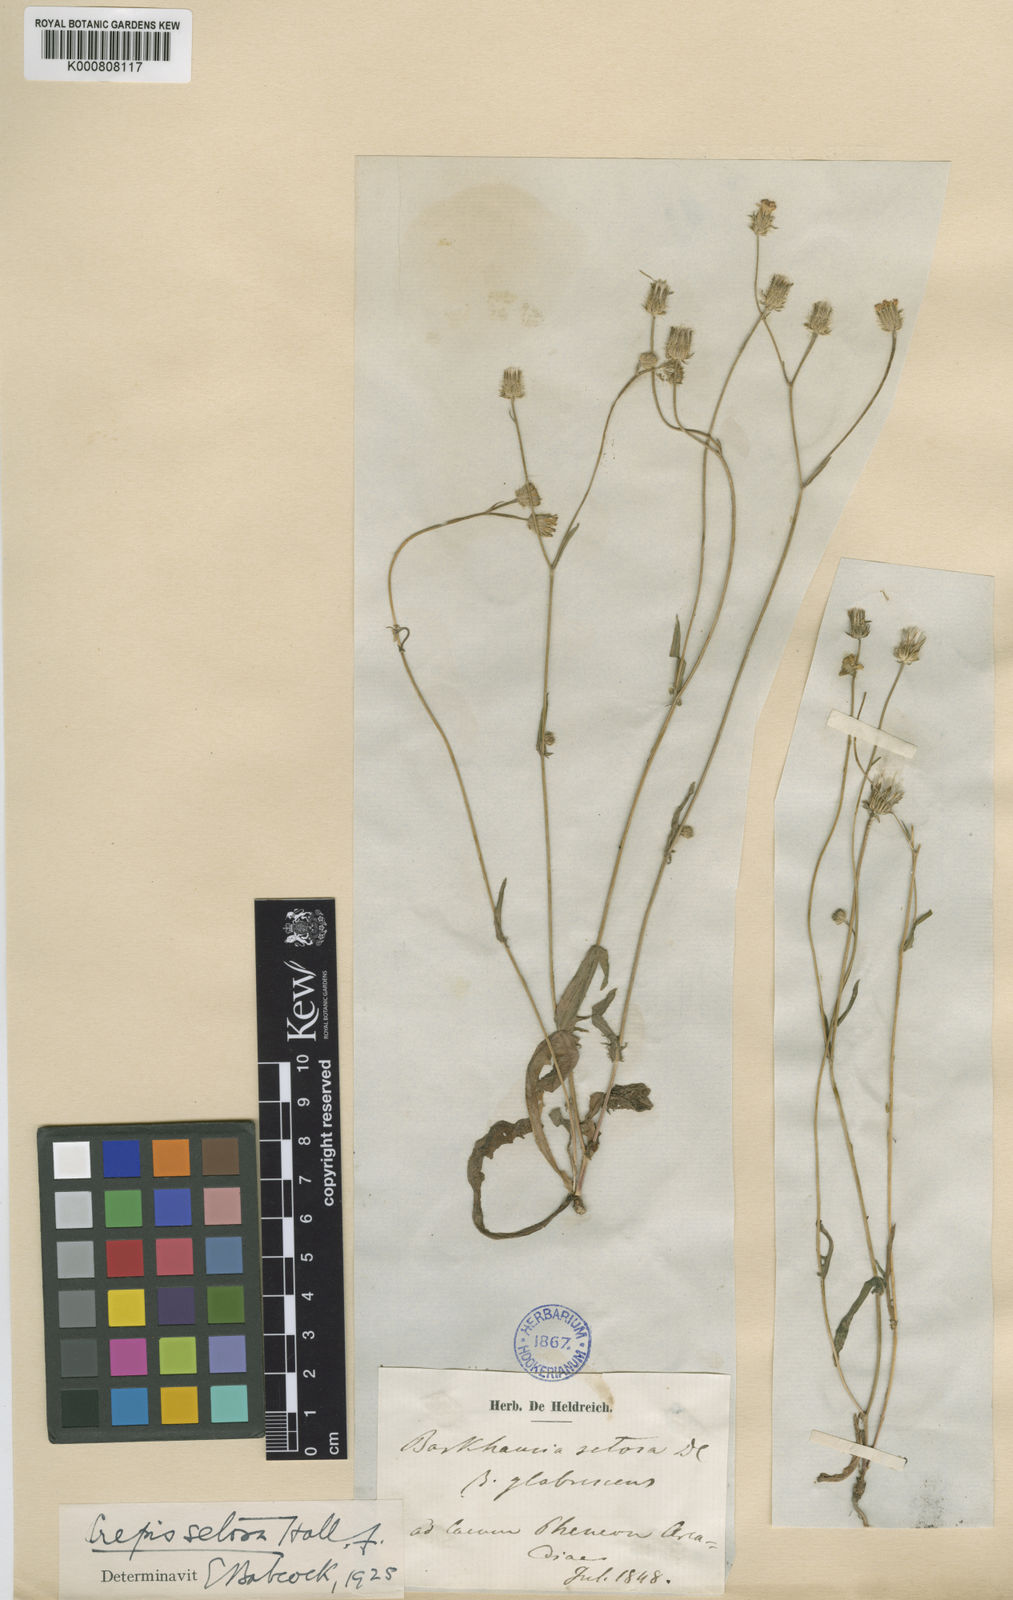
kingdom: Plantae
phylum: Tracheophyta
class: Magnoliopsida
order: Asterales
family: Asteraceae
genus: Crepis
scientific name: Crepis setosa
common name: Bristly hawk's-beard
